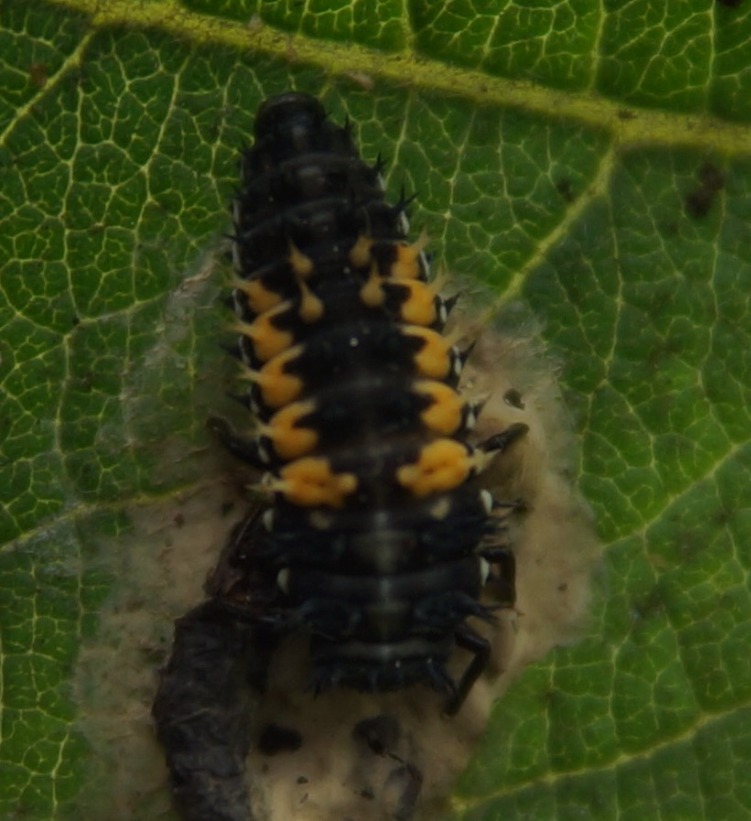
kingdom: Animalia
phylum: Arthropoda
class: Insecta
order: Coleoptera
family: Coccinellidae
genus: Harmonia
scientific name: Harmonia axyridis
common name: Harlekinmariehøne
